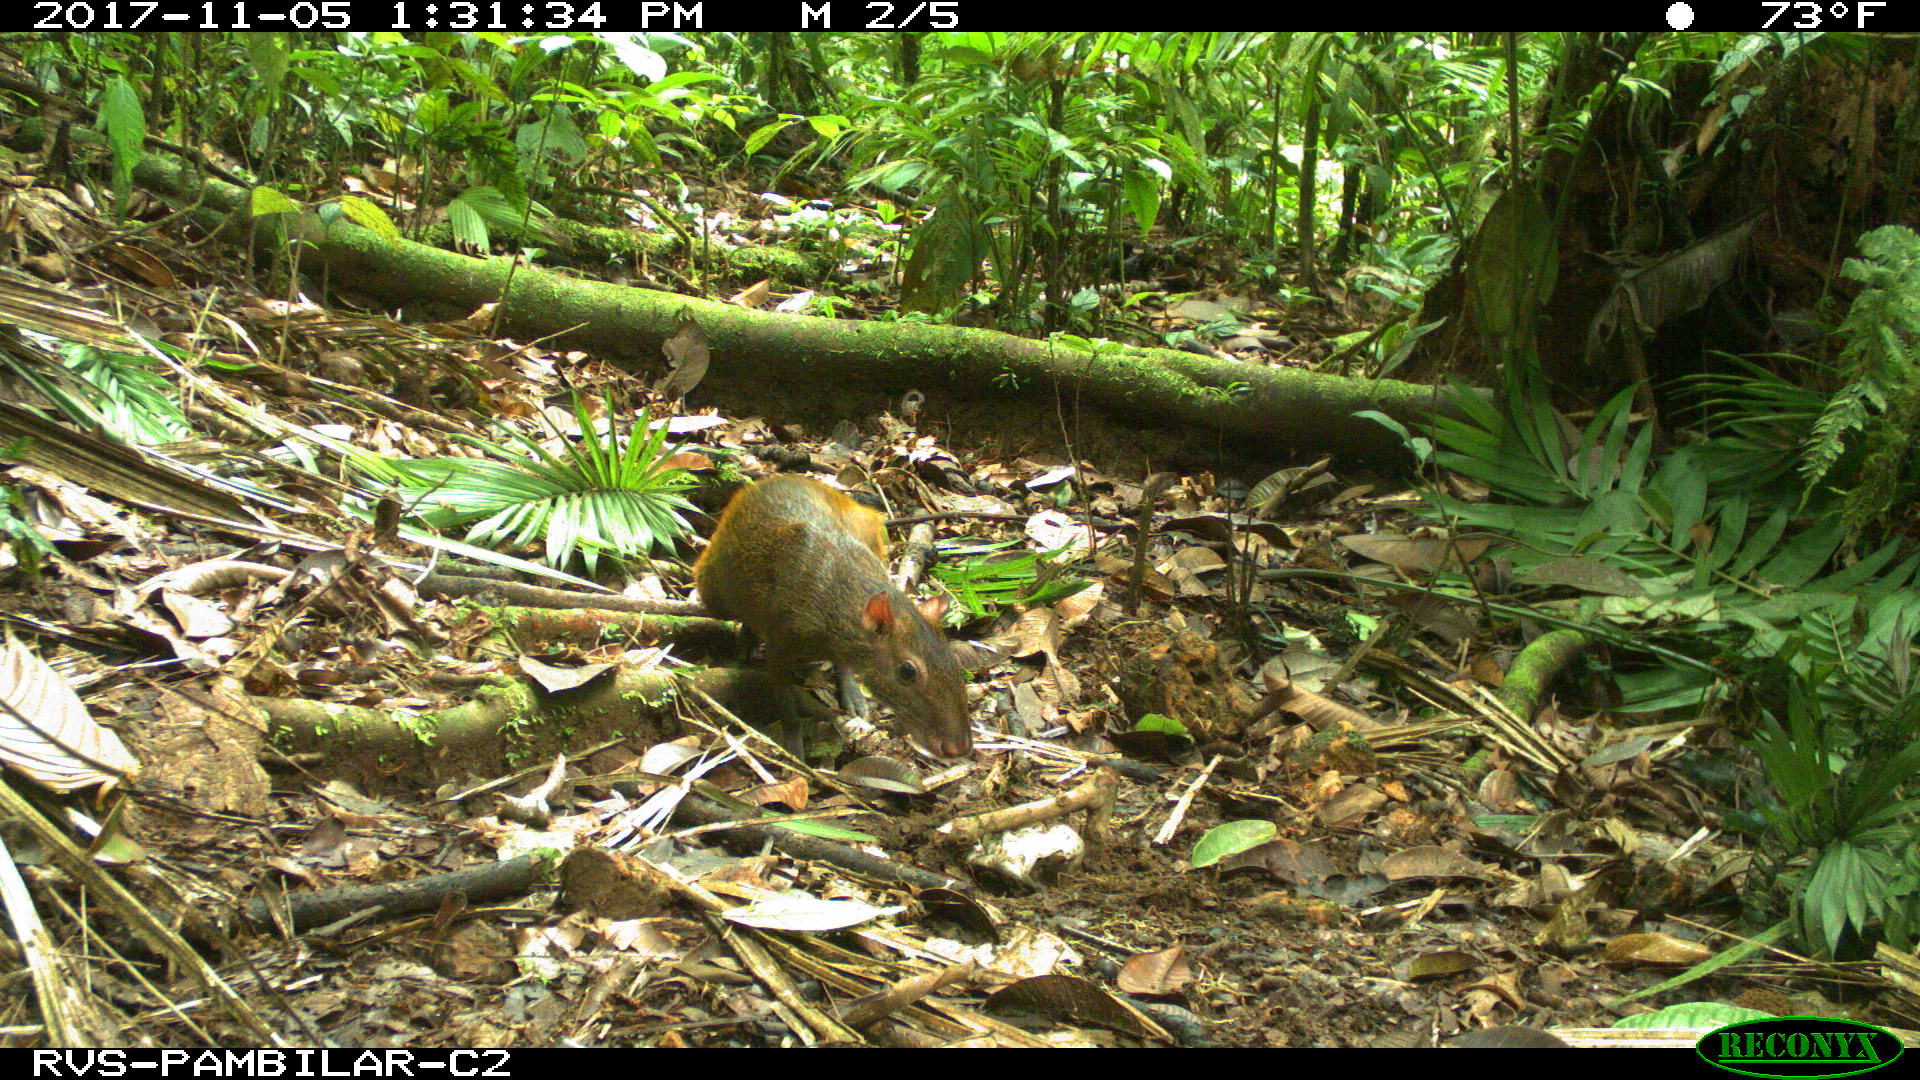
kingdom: Animalia
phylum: Chordata
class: Mammalia
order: Rodentia
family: Dasyproctidae
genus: Dasyprocta
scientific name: Dasyprocta punctata
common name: Central american agouti
